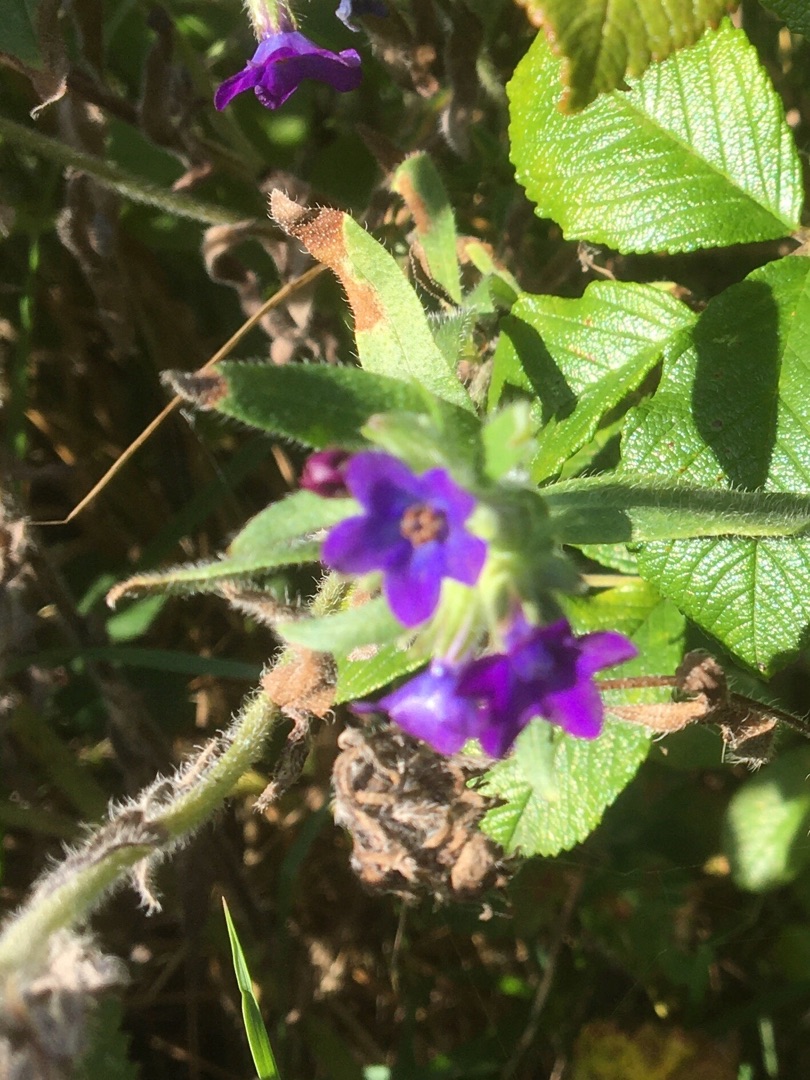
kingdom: Plantae
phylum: Tracheophyta
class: Magnoliopsida
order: Boraginales
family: Boraginaceae
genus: Anchusa
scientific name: Anchusa officinalis
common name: Læge-oksetunge
